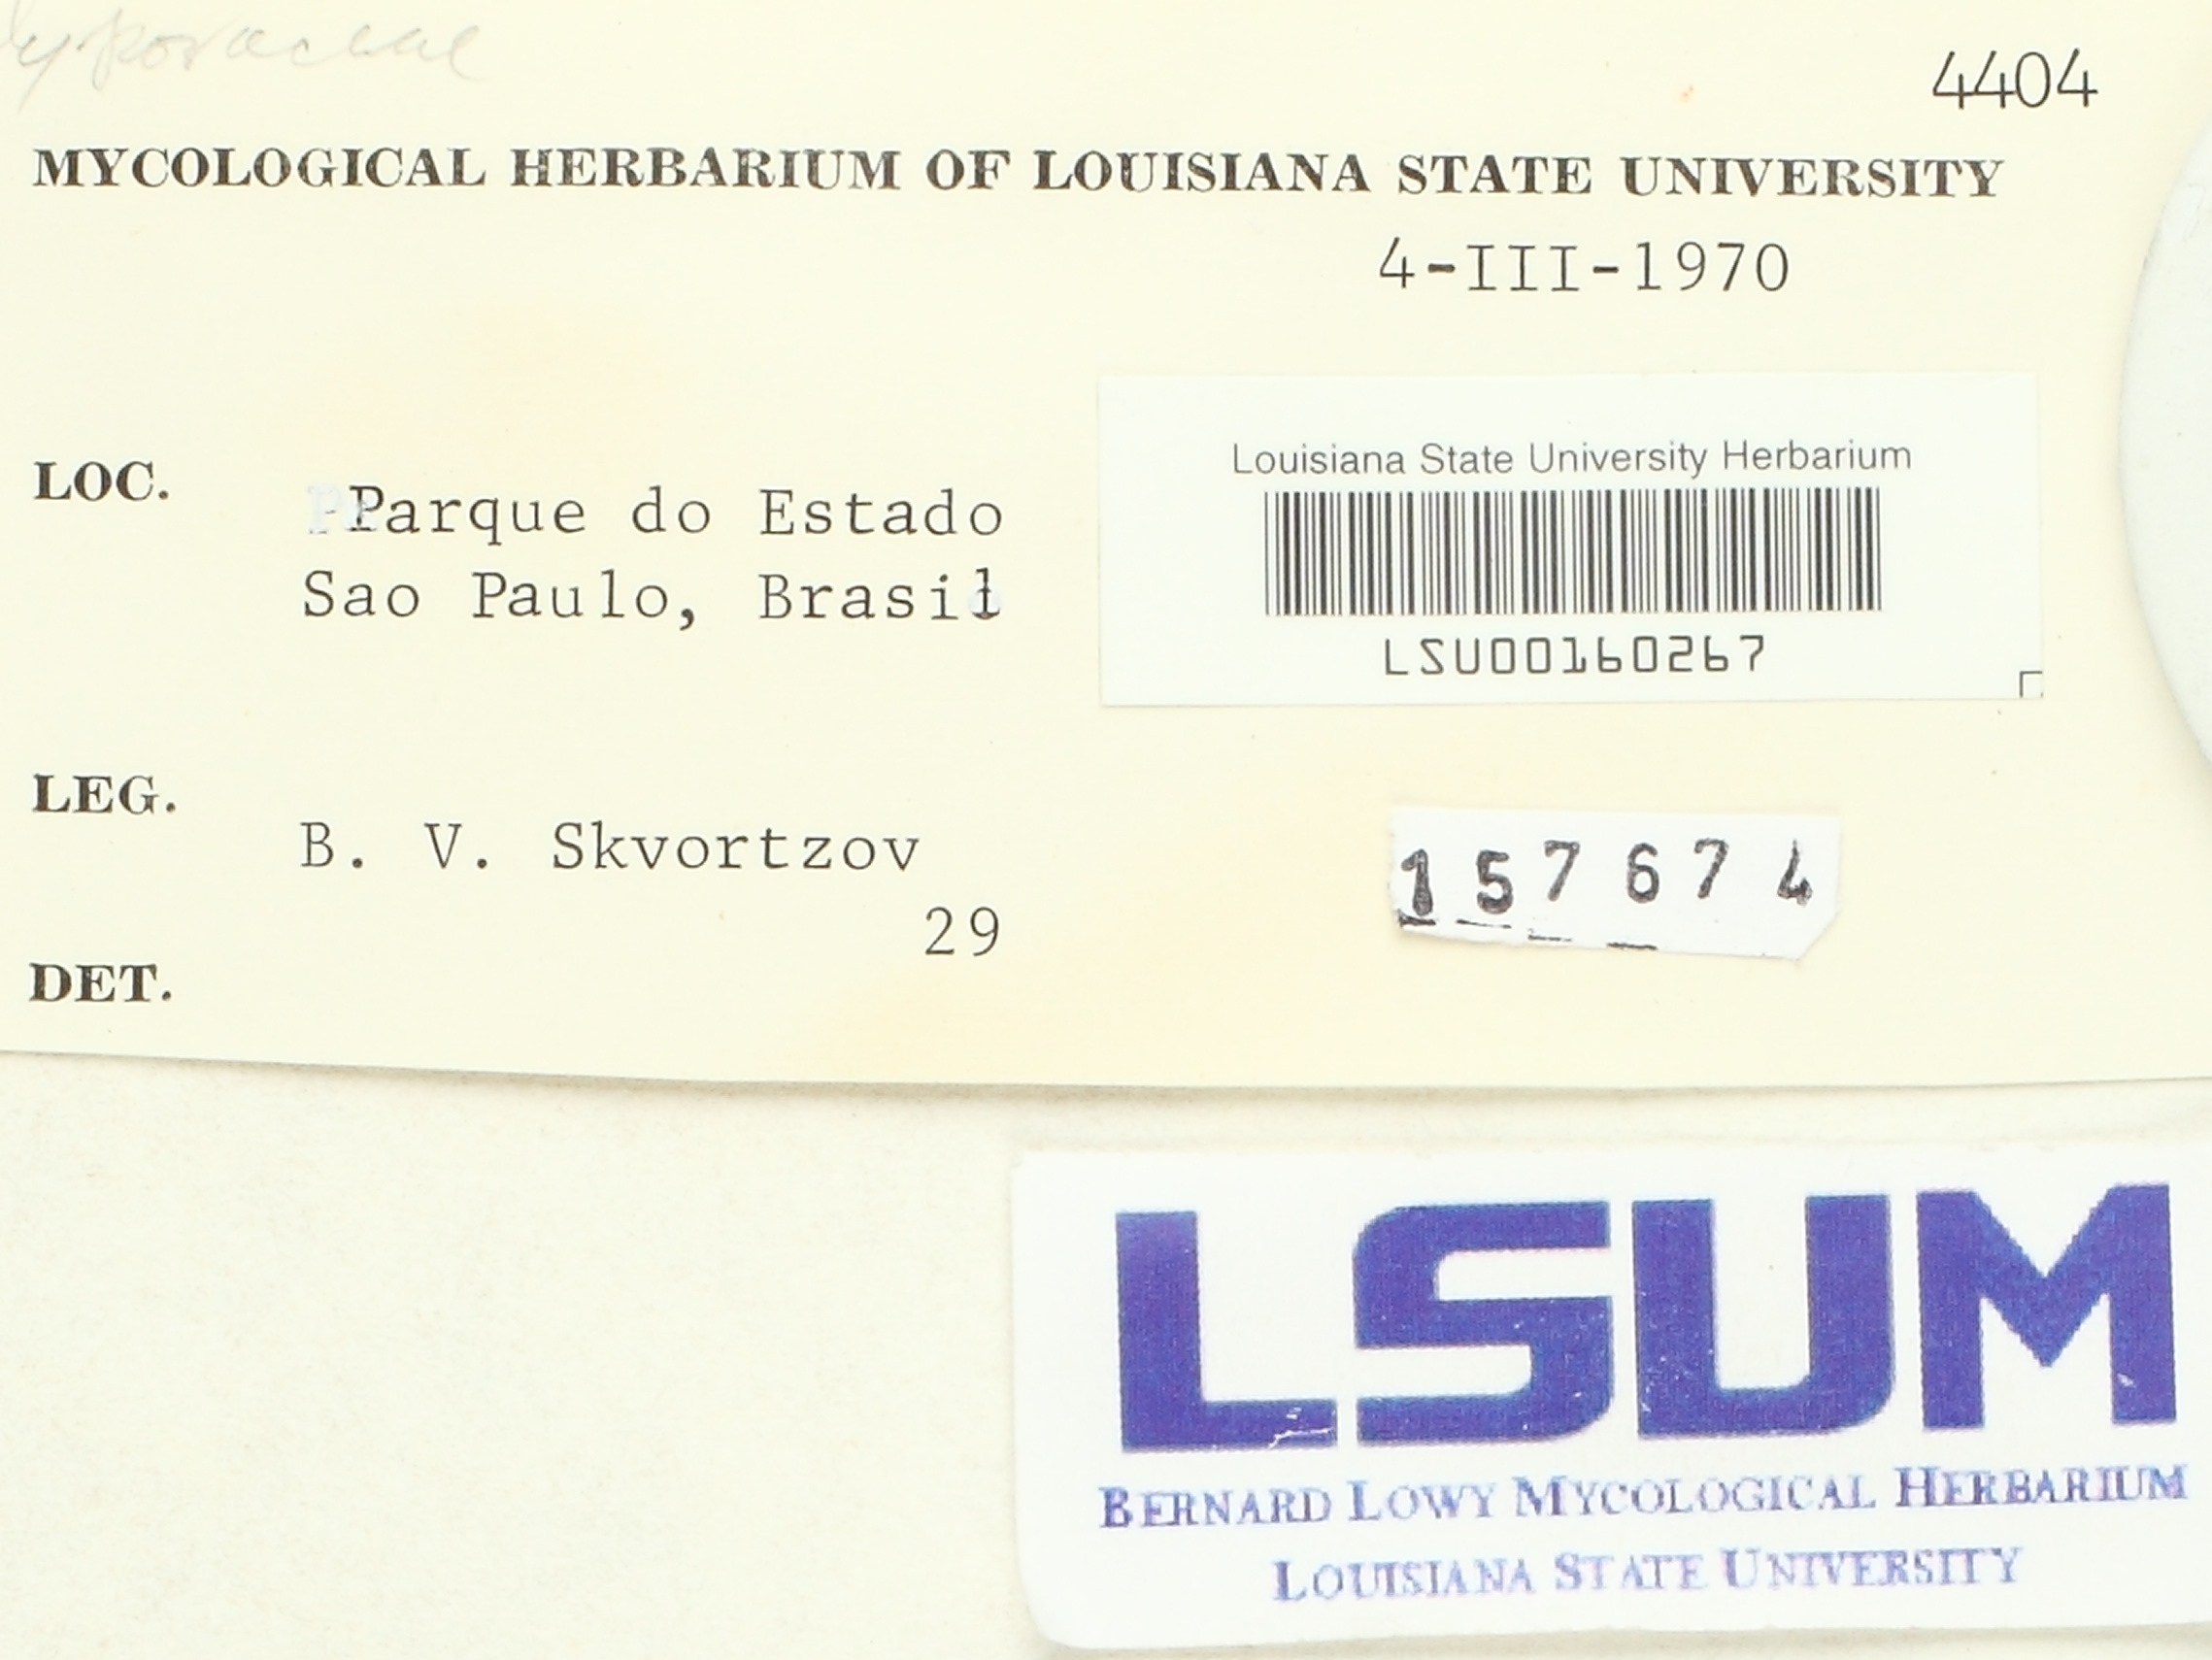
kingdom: Fungi
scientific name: Fungi
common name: Fungi
